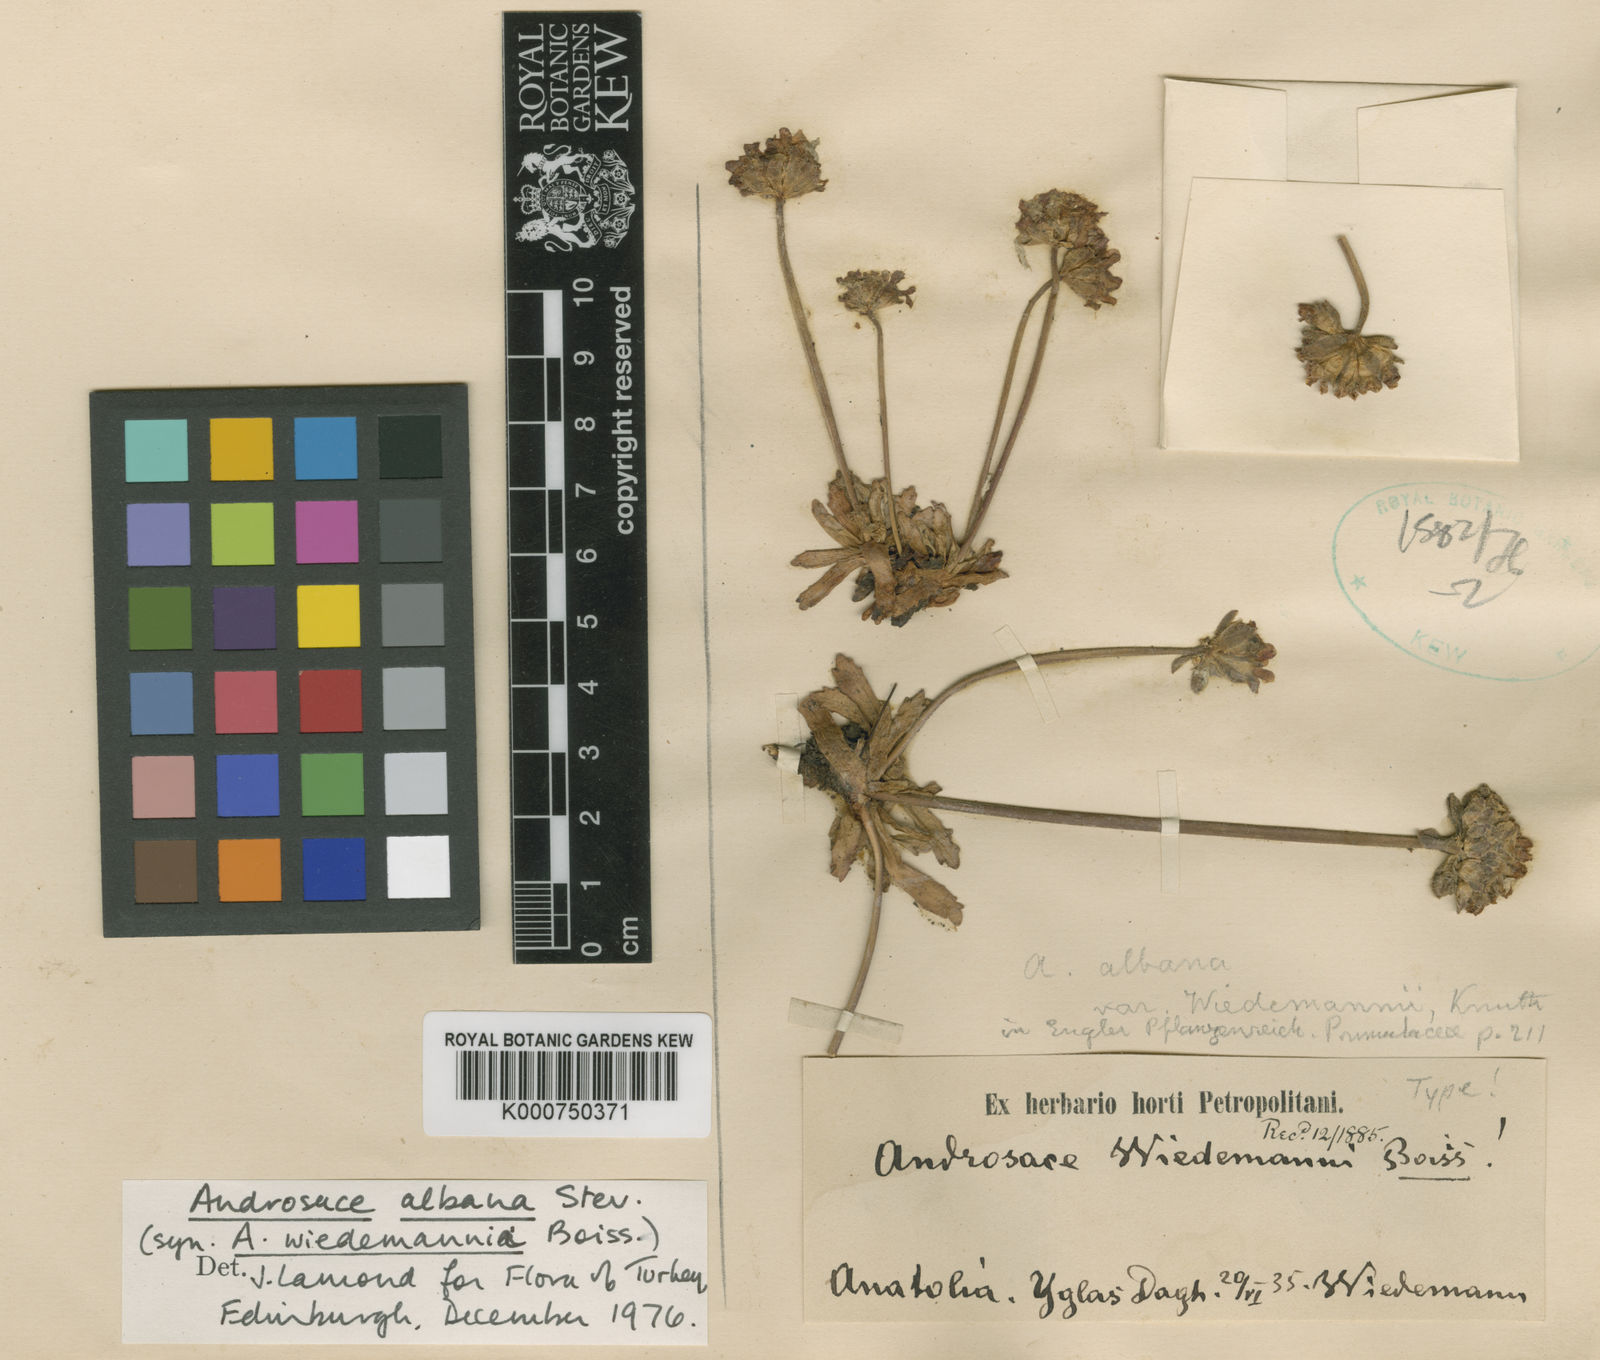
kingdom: Plantae
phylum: Tracheophyta
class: Magnoliopsida
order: Ericales
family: Primulaceae
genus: Androsace
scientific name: Androsace albana
